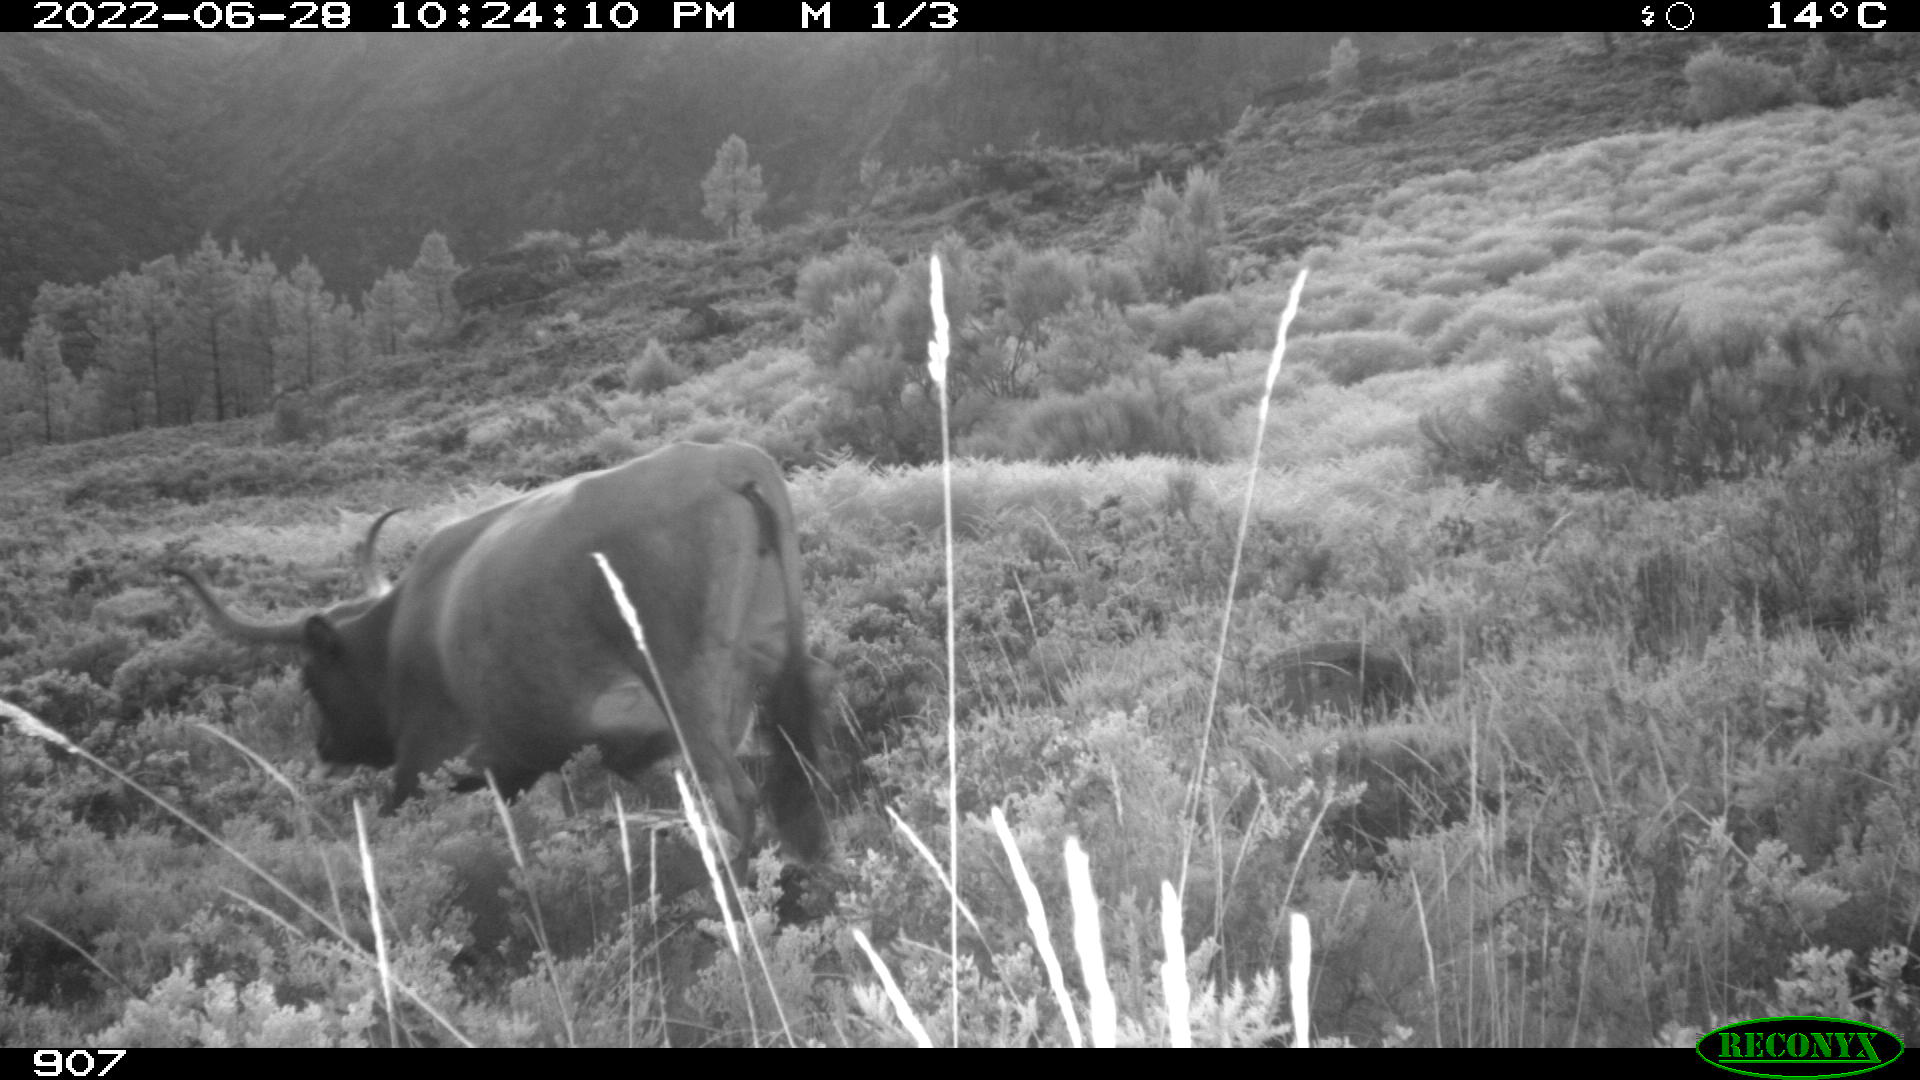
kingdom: Animalia
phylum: Chordata
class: Mammalia
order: Artiodactyla
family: Bovidae
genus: Bos
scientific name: Bos taurus
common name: Domesticated cattle
